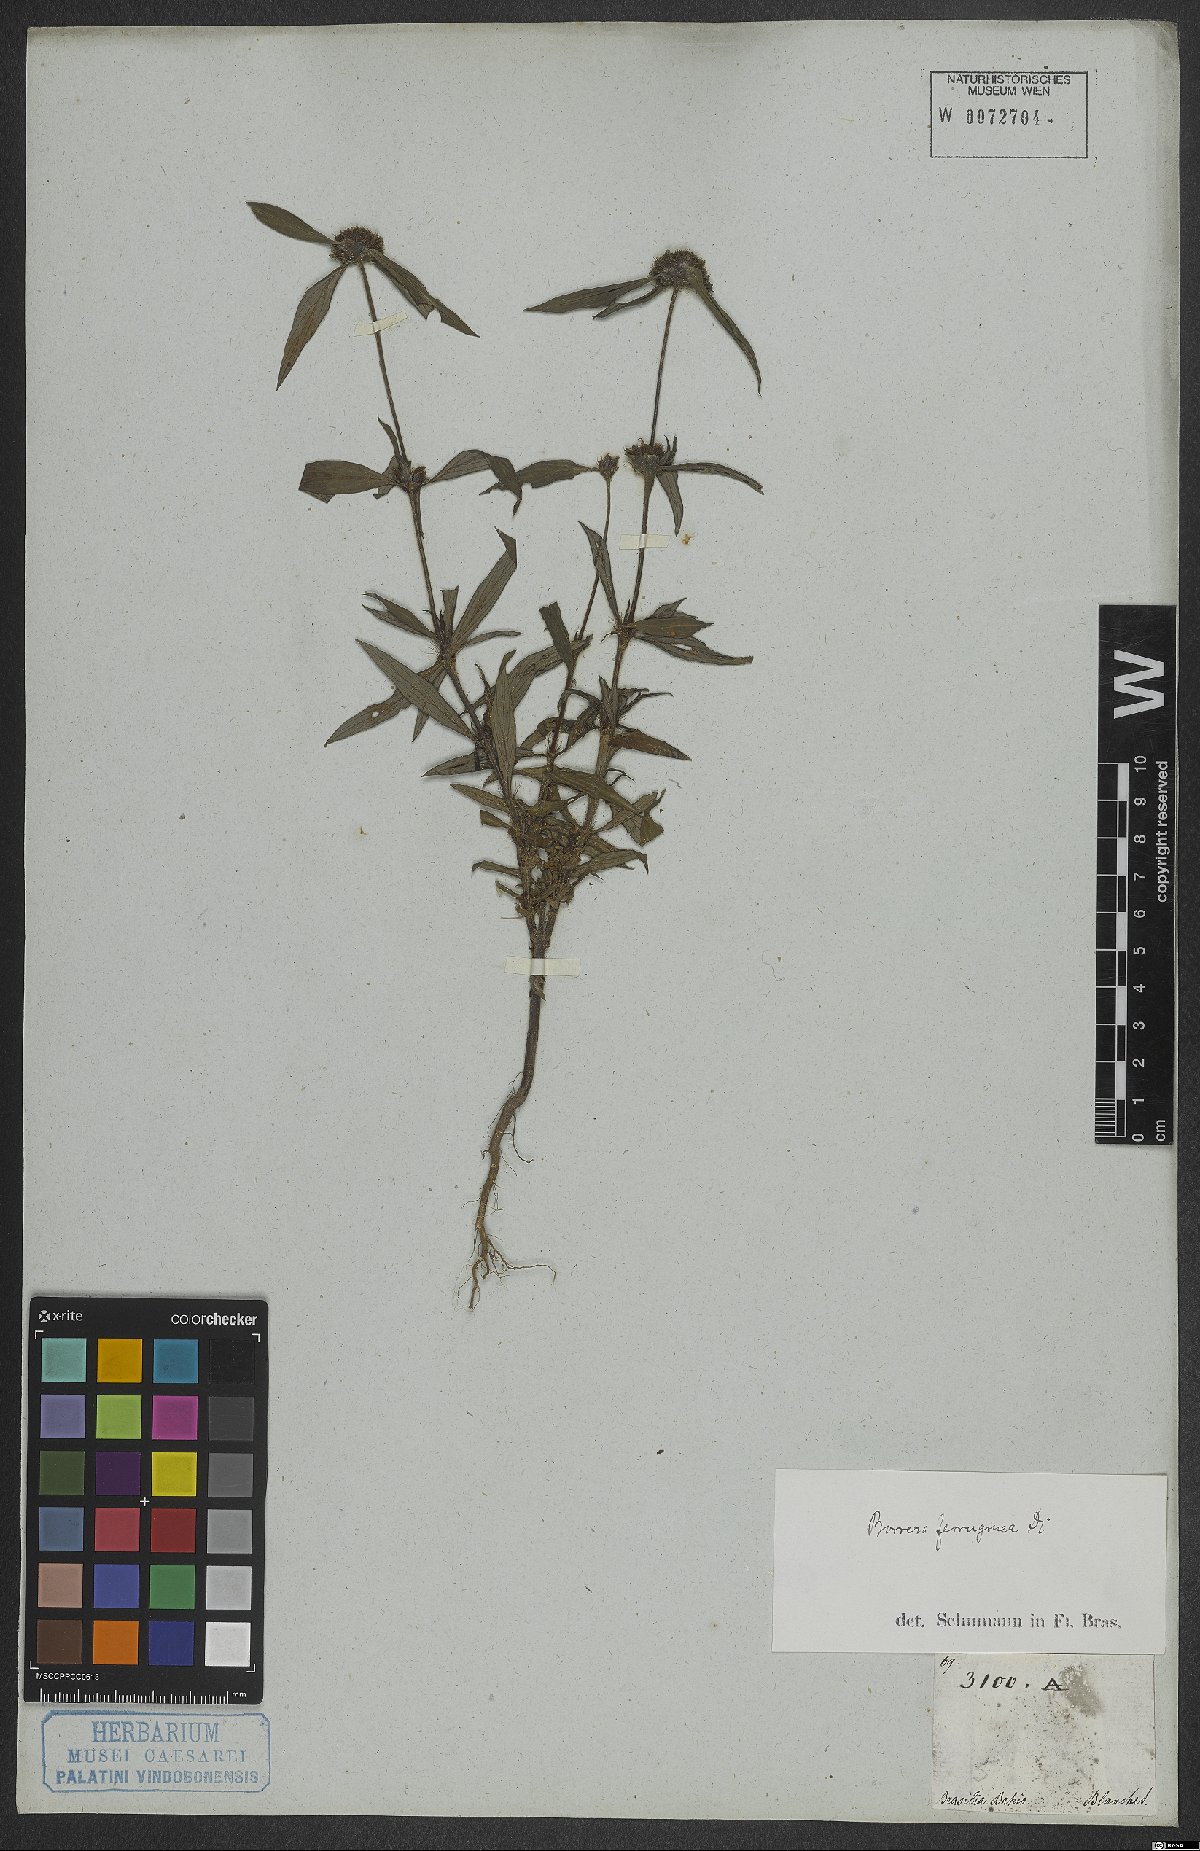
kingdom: Plantae
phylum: Tracheophyta
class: Magnoliopsida
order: Gentianales
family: Rubiaceae
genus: Spermacoce
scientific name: Spermacoce capitata
